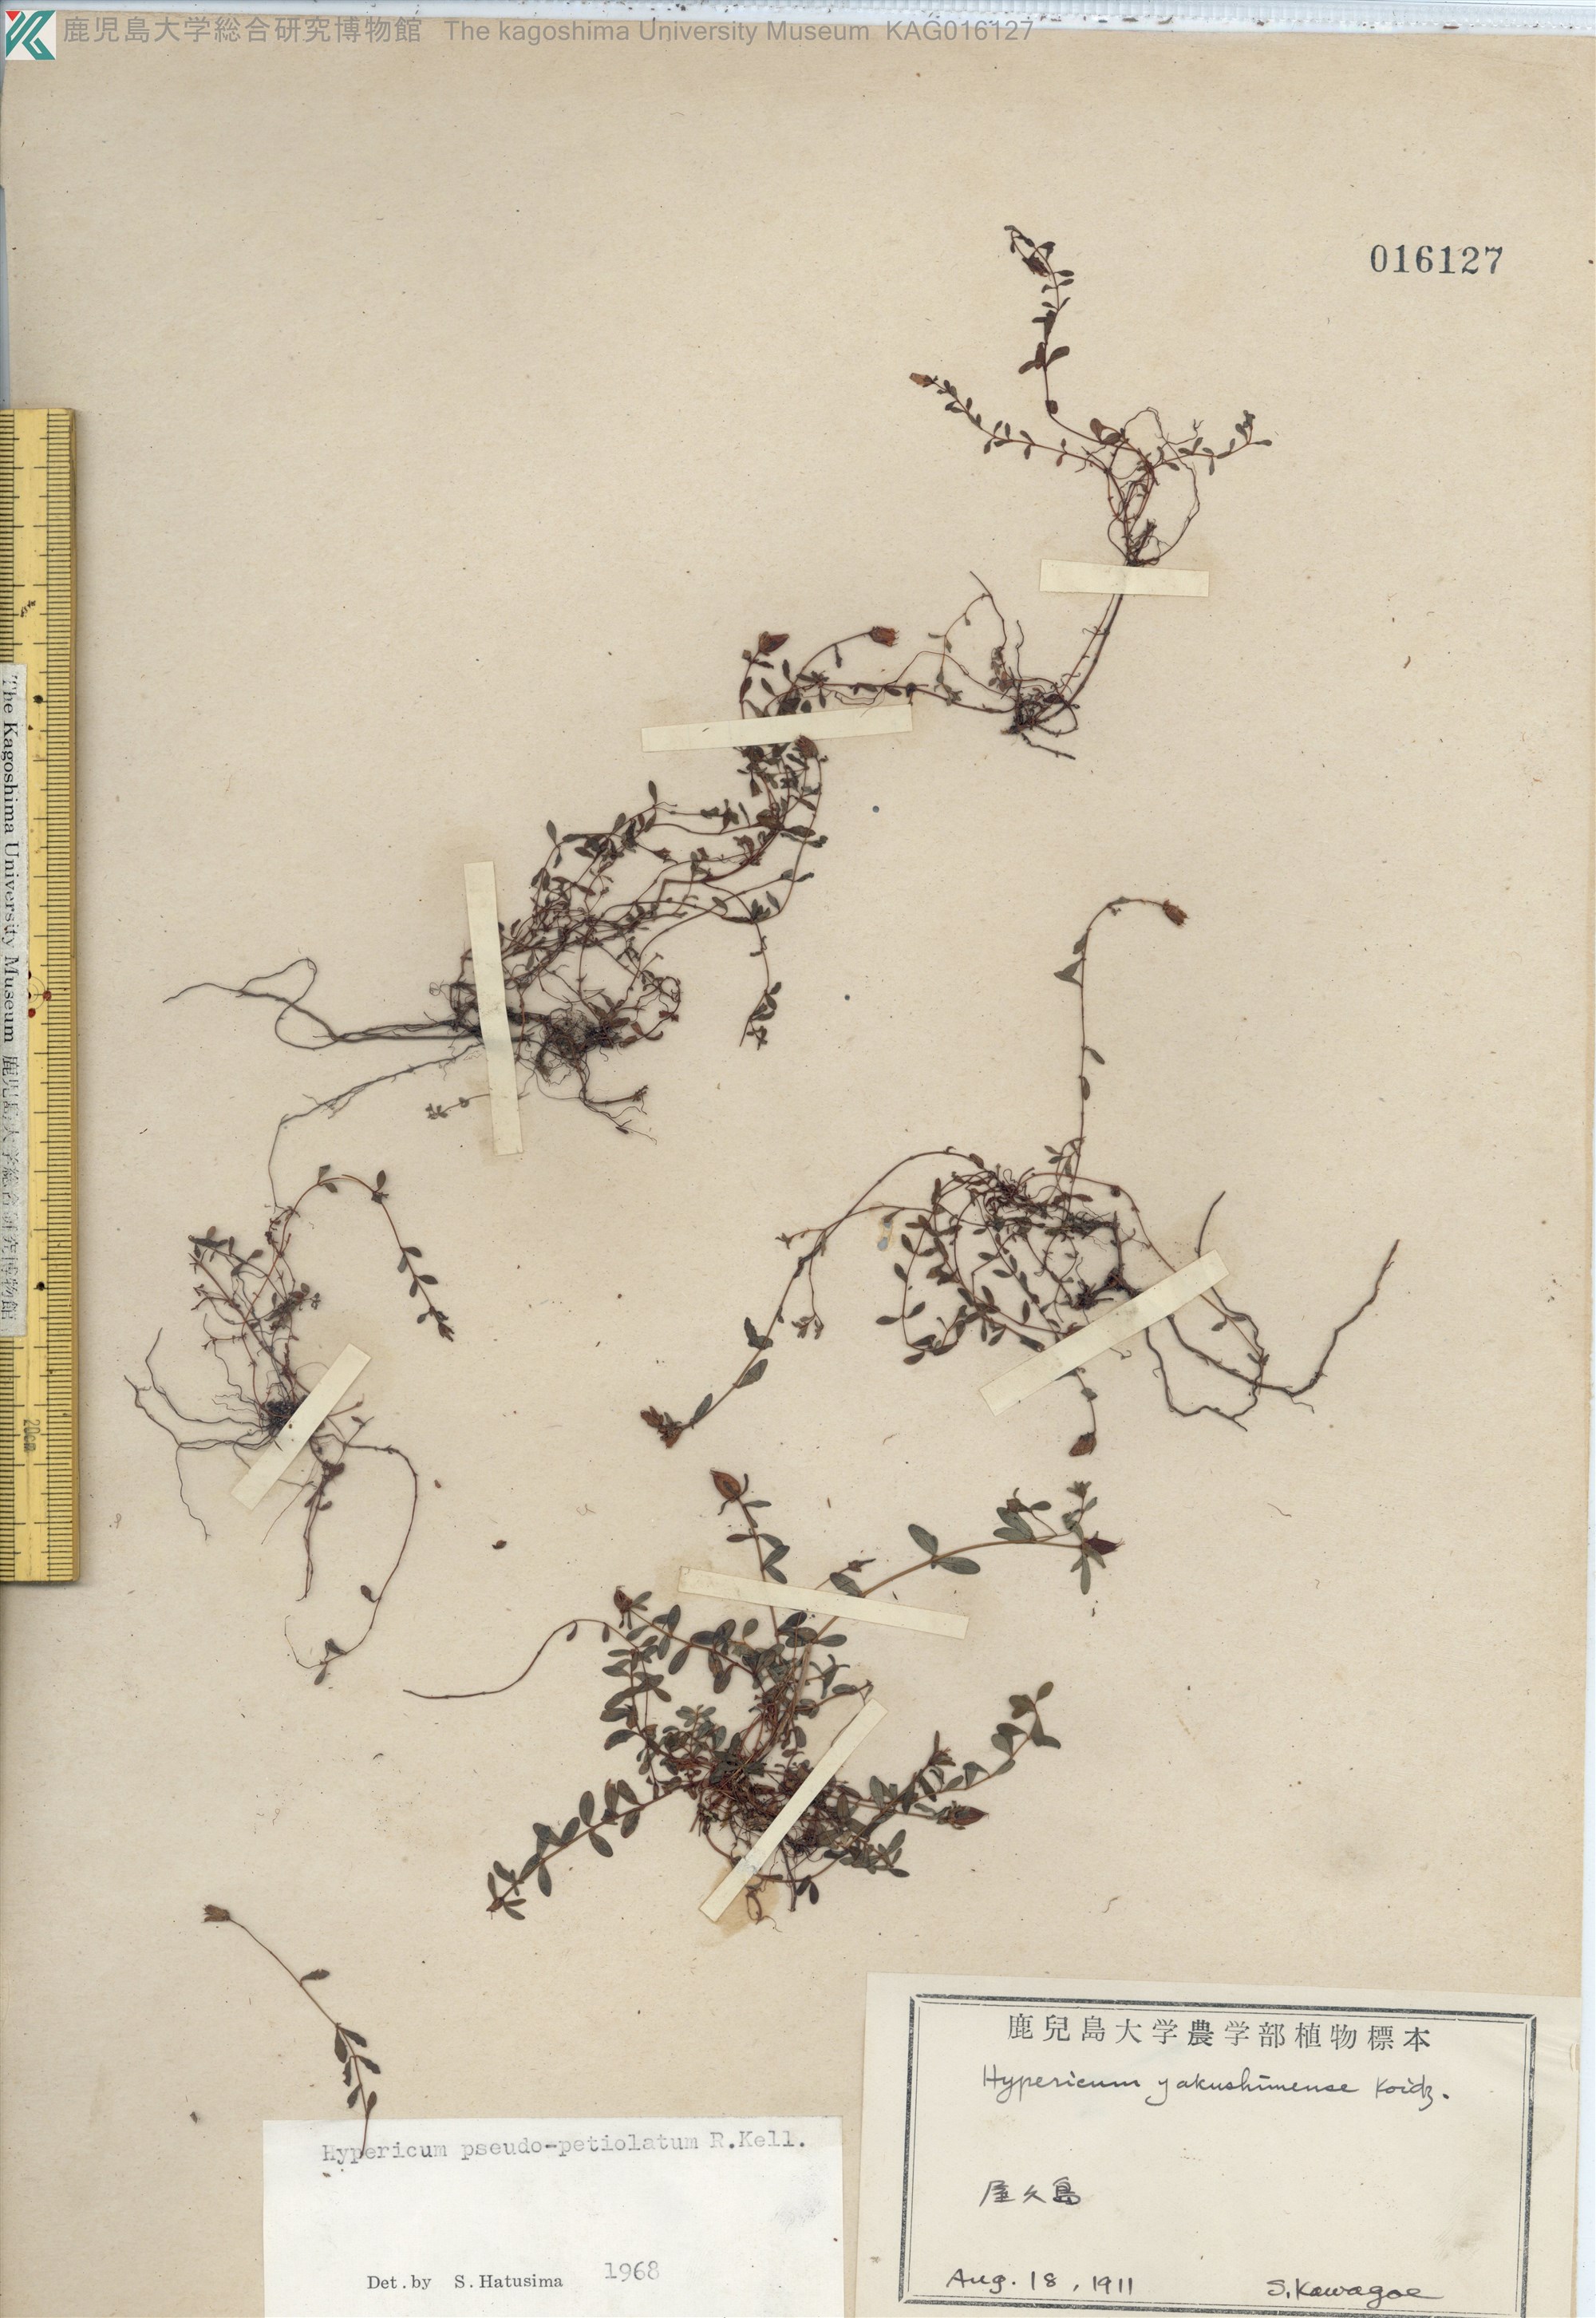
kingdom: Plantae
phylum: Tracheophyta
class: Magnoliopsida
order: Malpighiales
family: Hypericaceae
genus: Hypericum
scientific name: Hypericum pseudopetiolatum
